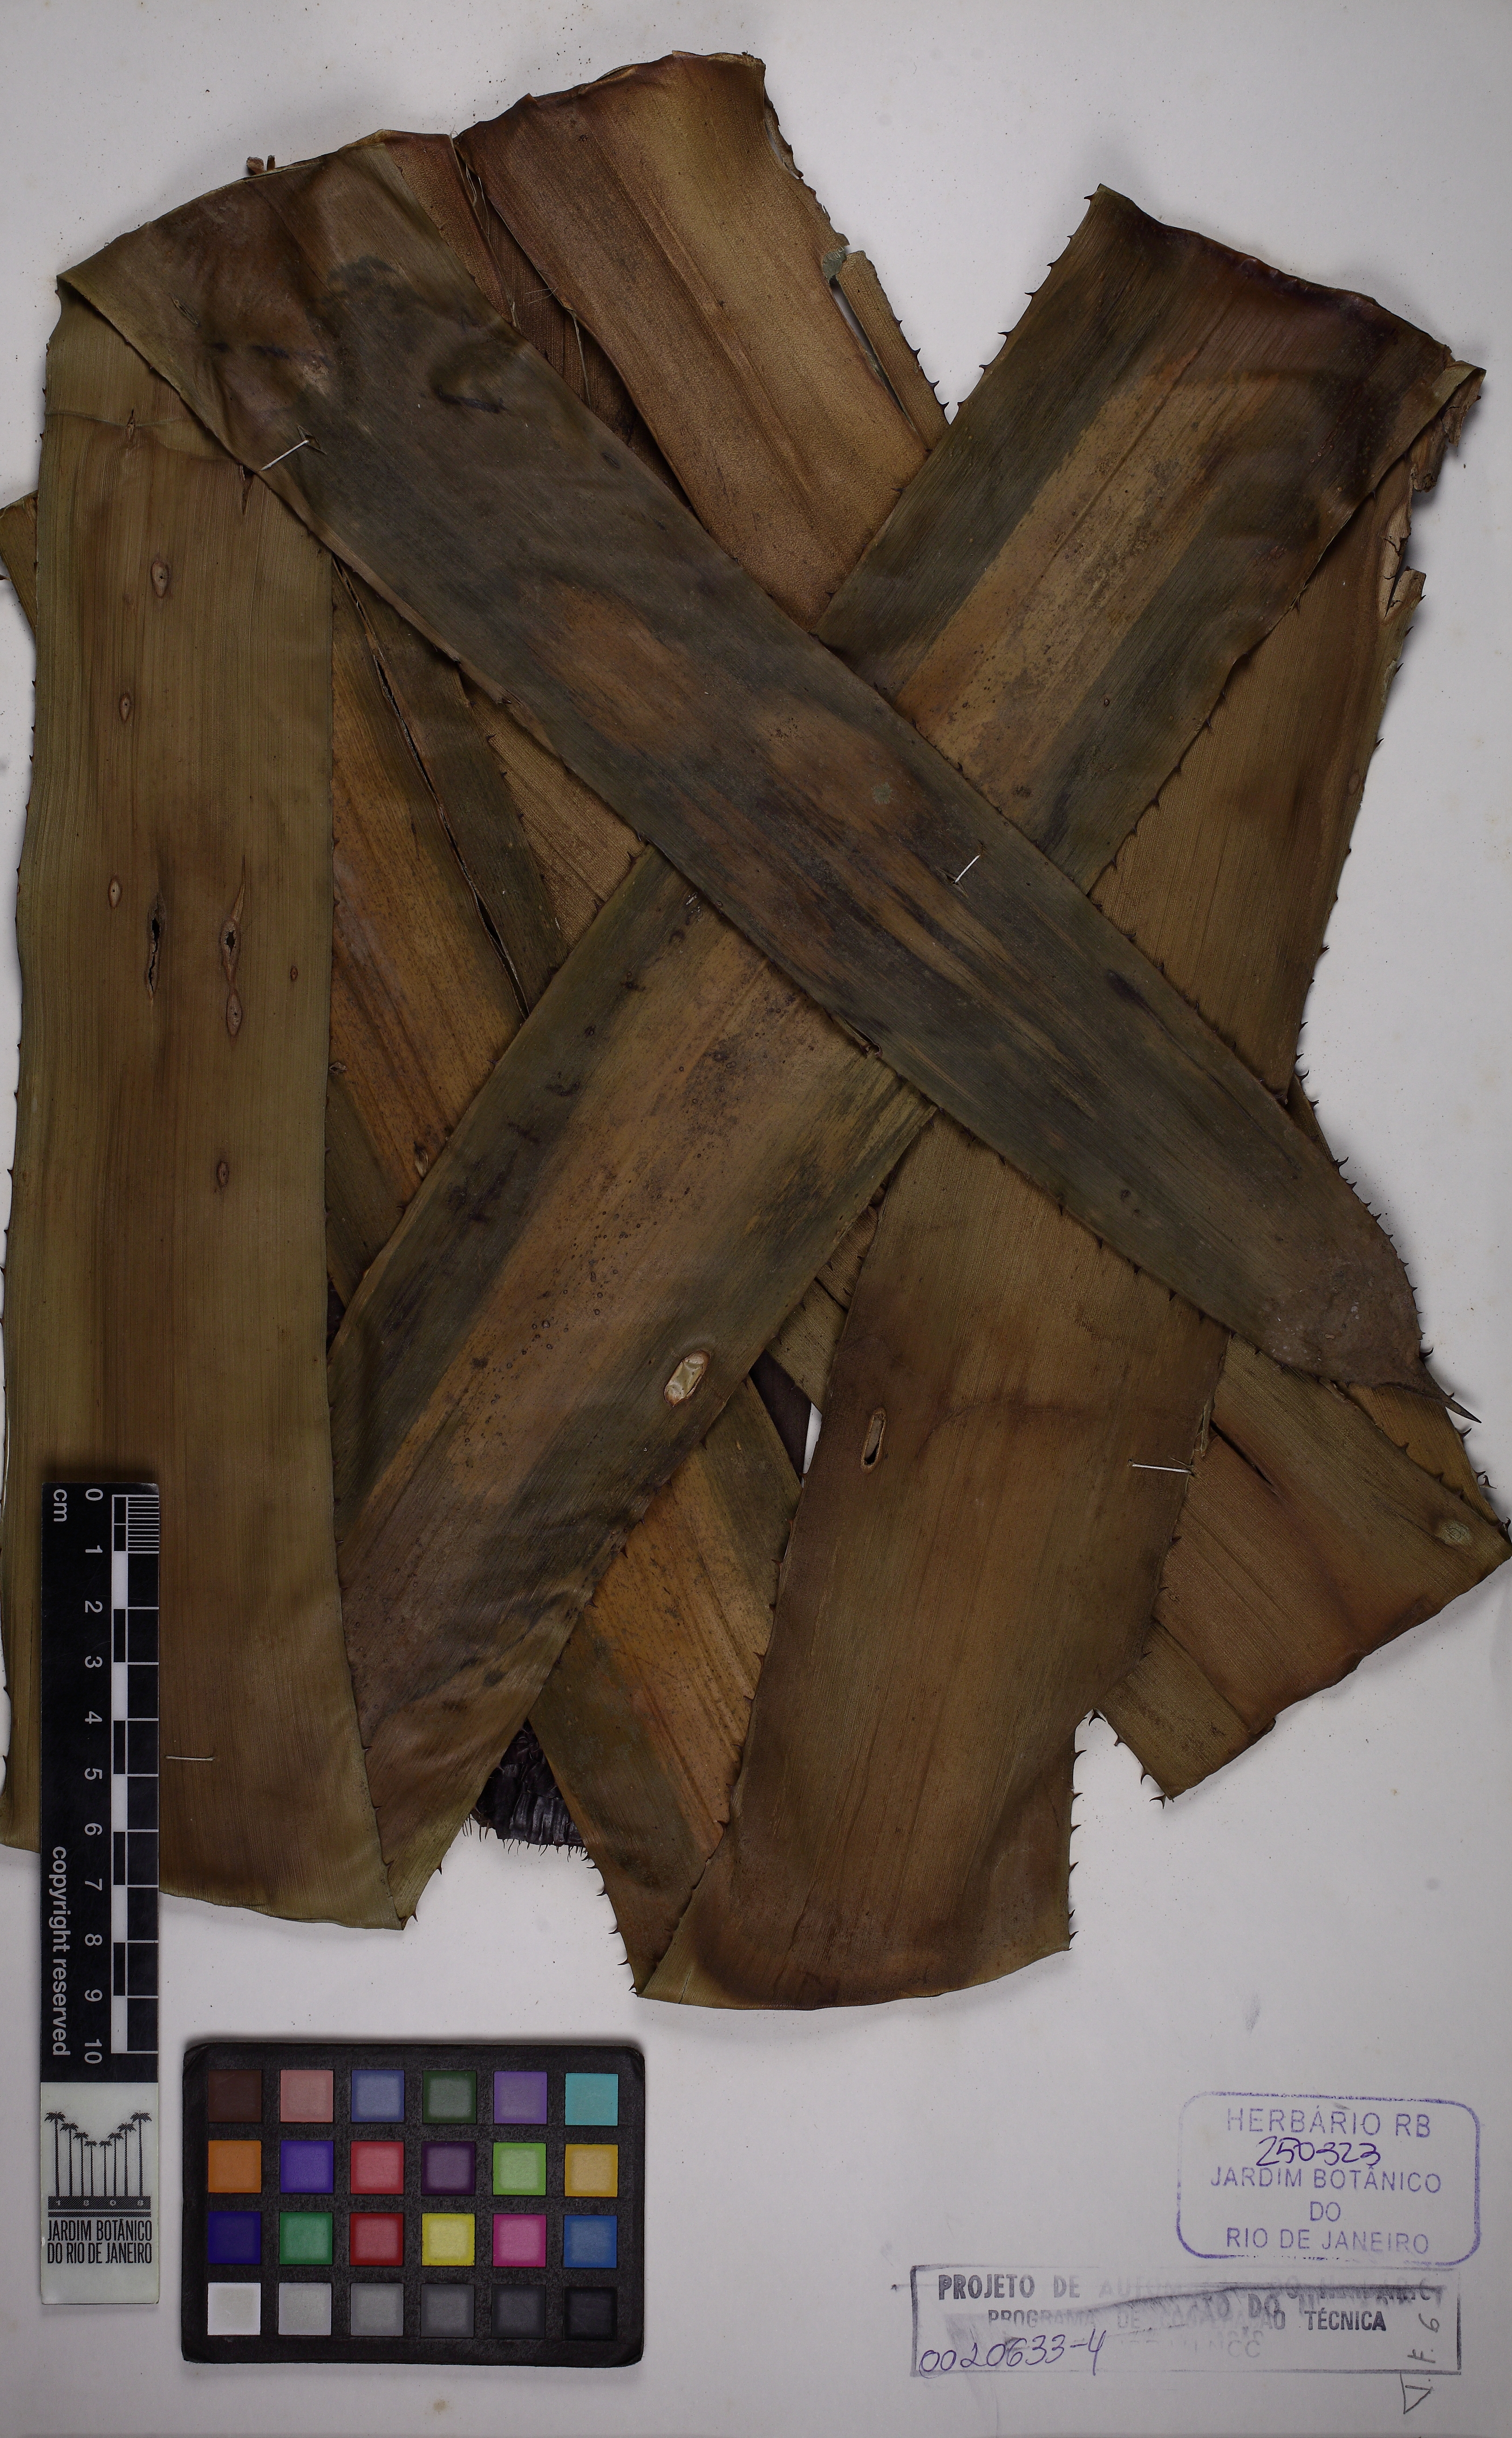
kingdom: Plantae
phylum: Tracheophyta
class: Liliopsida
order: Poales
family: Bromeliaceae
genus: Aechmea
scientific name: Aechmea floribunda
